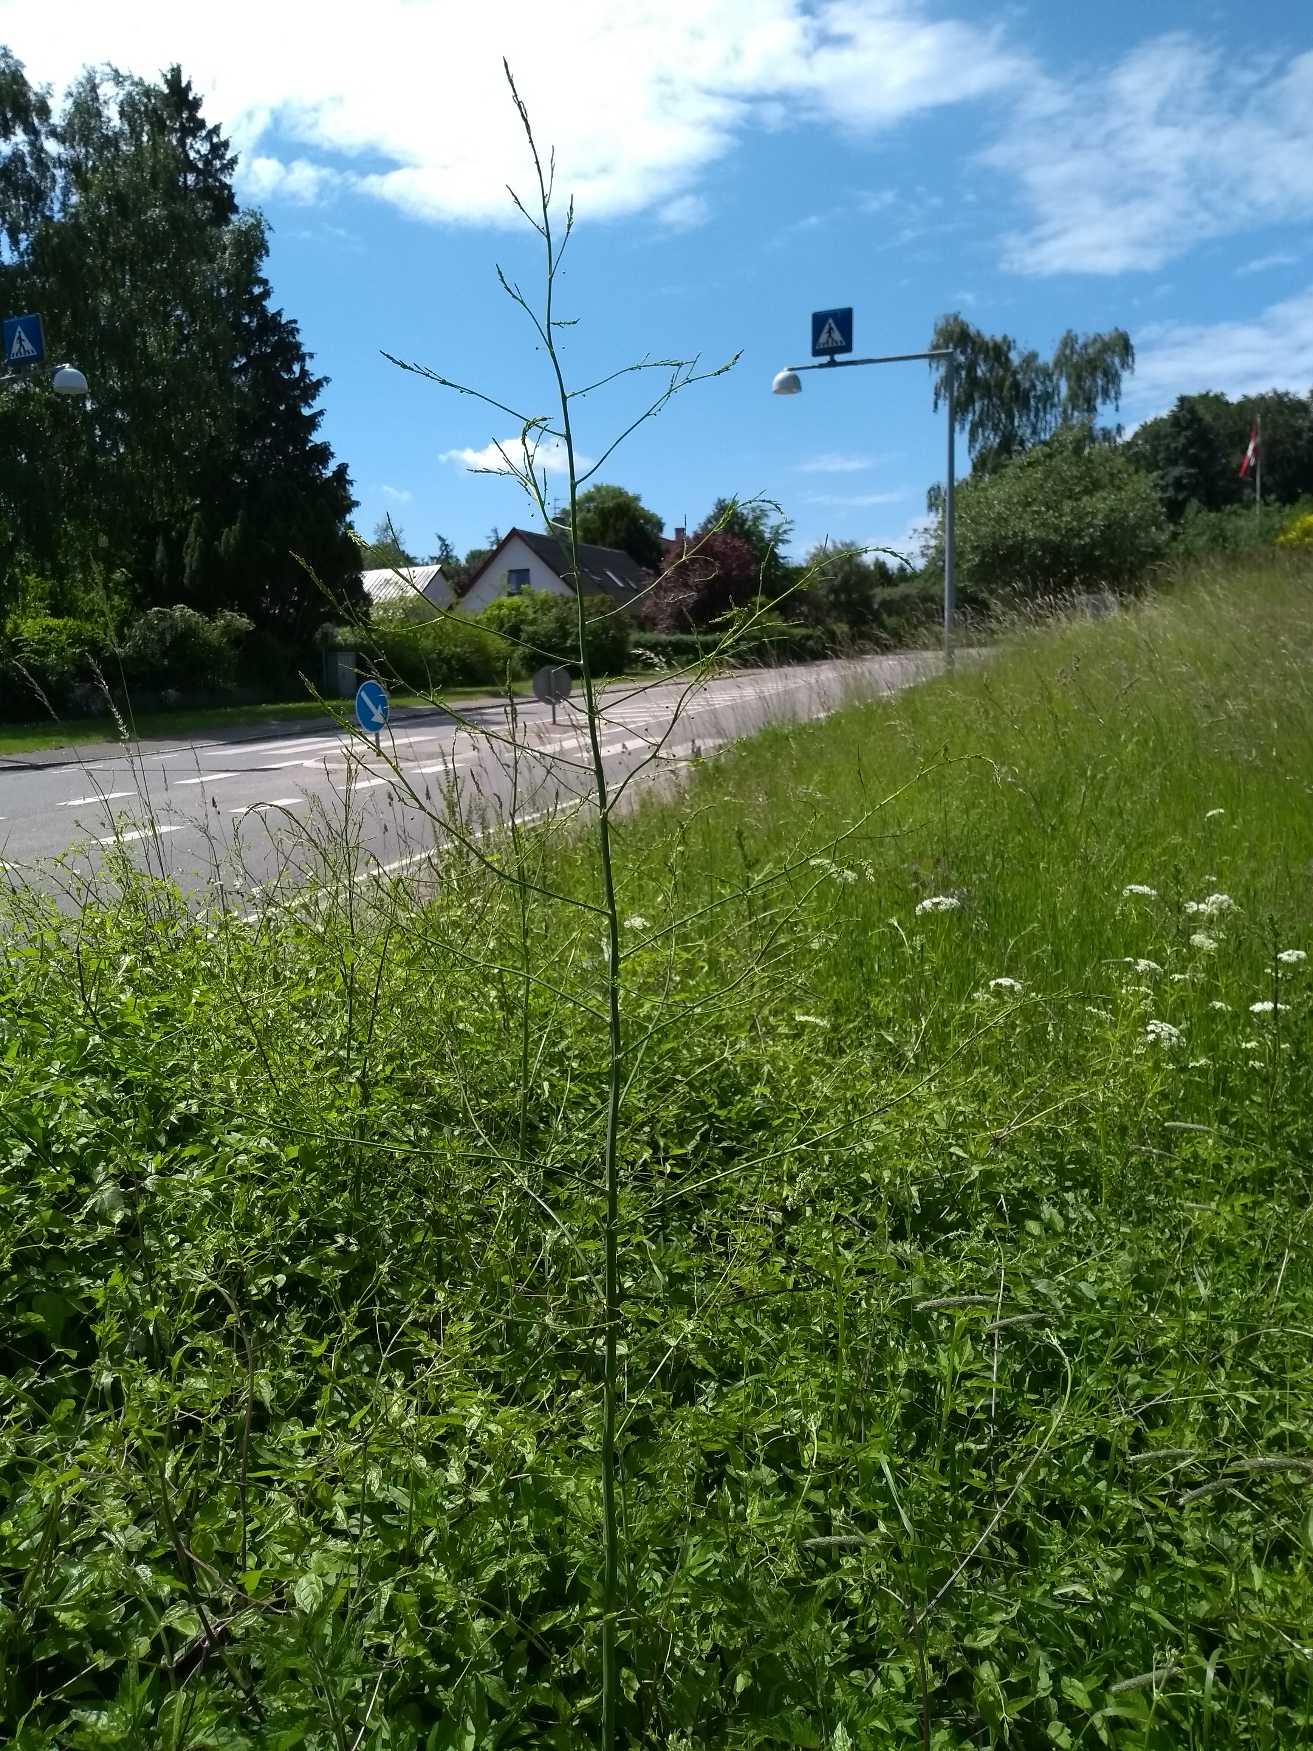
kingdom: Plantae
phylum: Tracheophyta
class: Liliopsida
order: Asparagales
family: Asparagaceae
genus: Asparagus
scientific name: Asparagus officinalis
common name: Asparges
